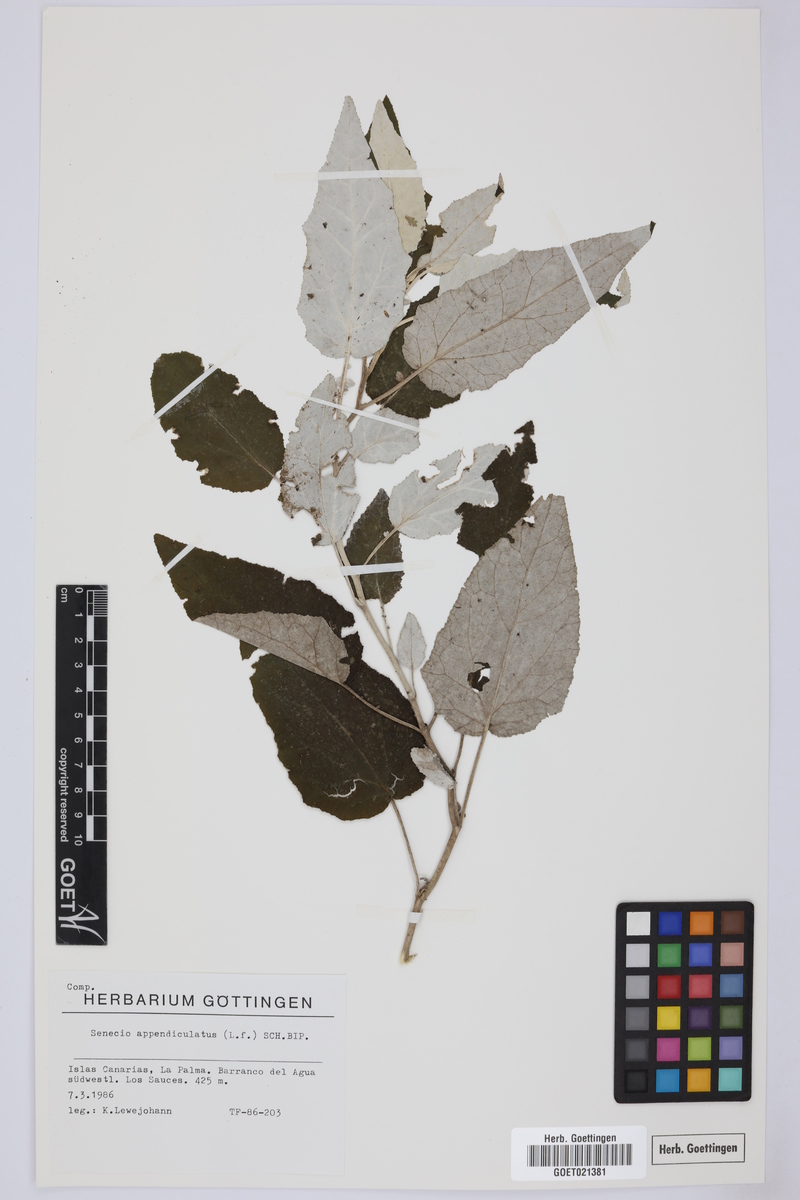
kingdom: Plantae
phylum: Tracheophyta
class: Magnoliopsida
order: Asterales
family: Asteraceae
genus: Senecio
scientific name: Senecio appendiculatus
